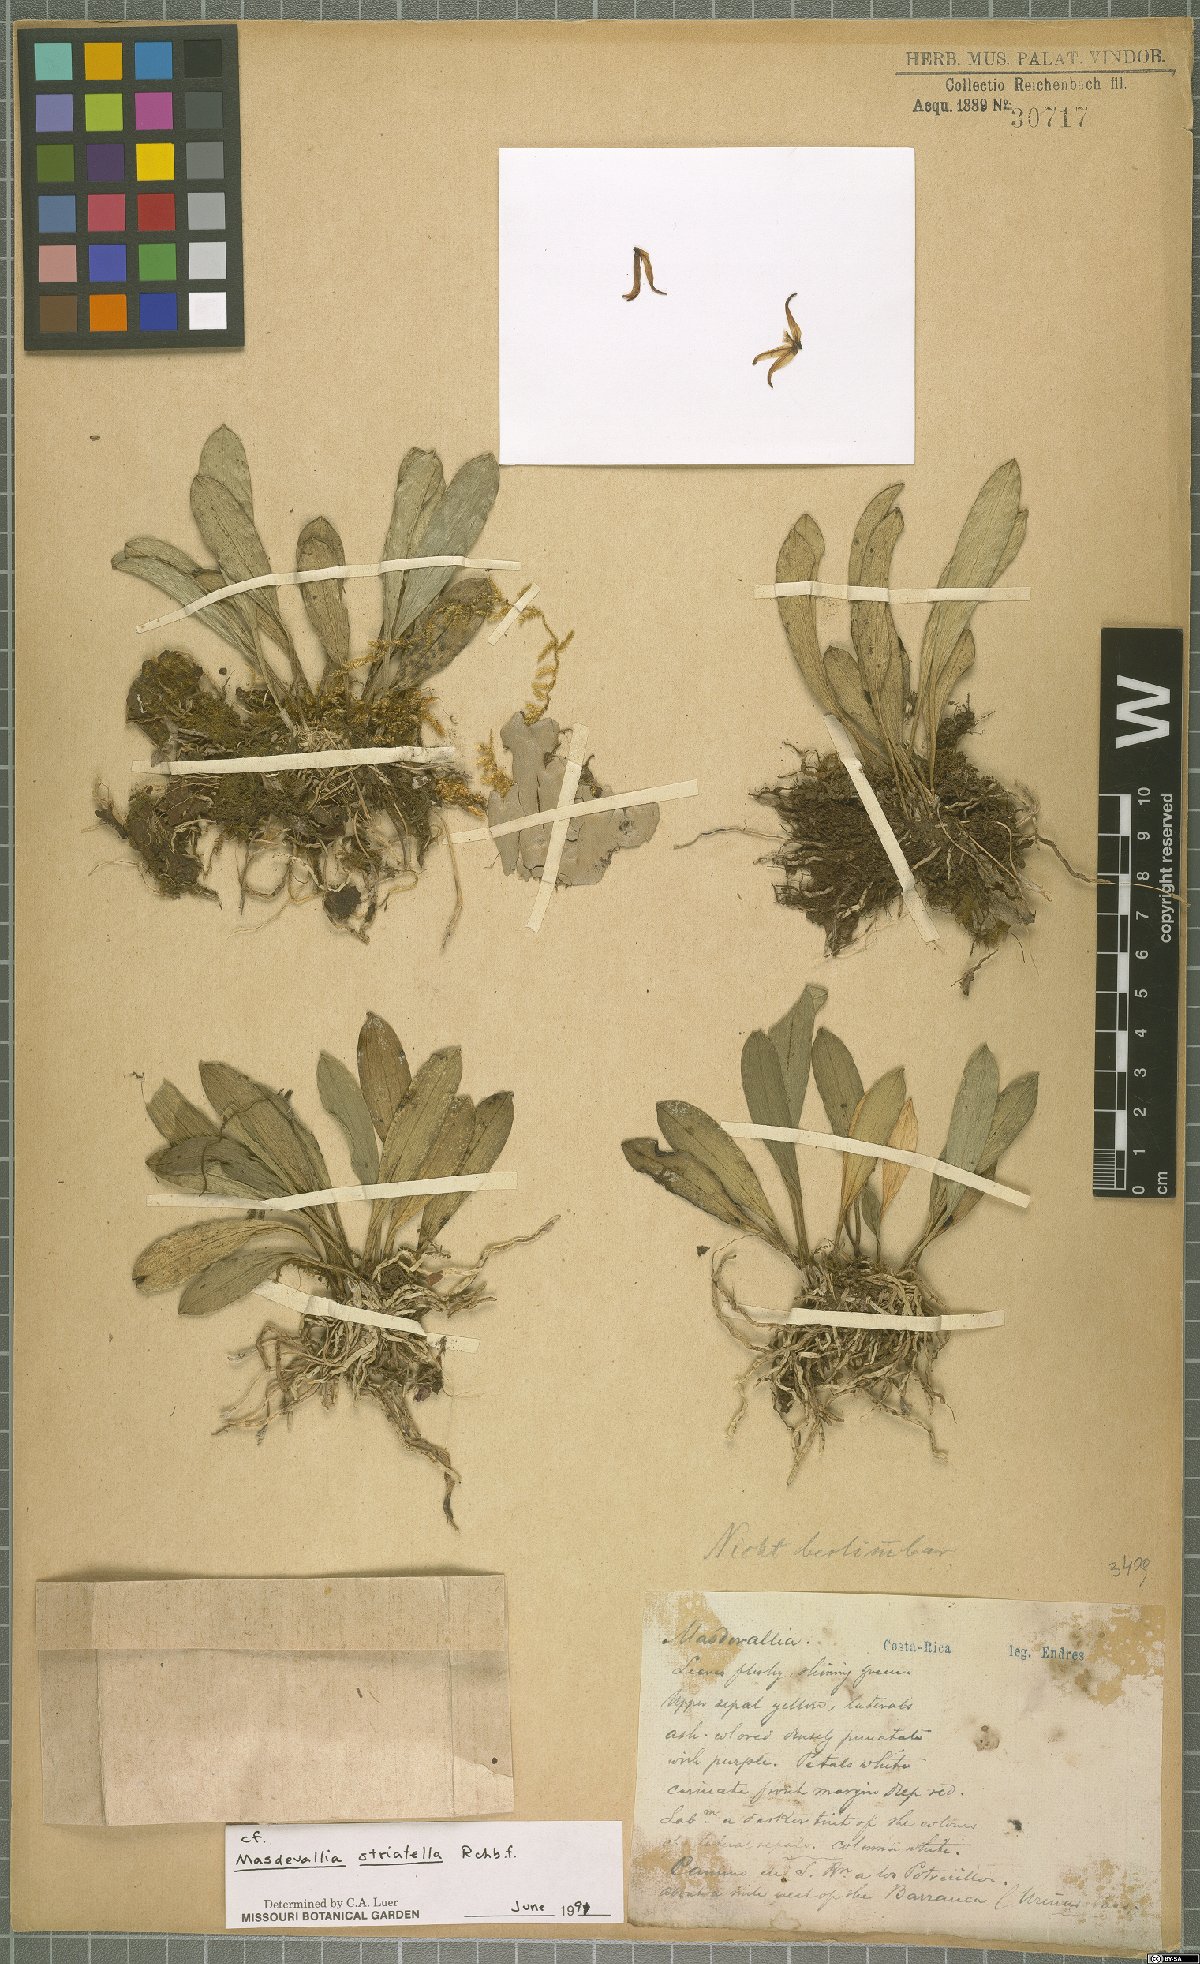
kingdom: Plantae
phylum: Tracheophyta
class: Liliopsida
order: Asparagales
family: Orchidaceae
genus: Masdevallia
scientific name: Masdevallia striatella
